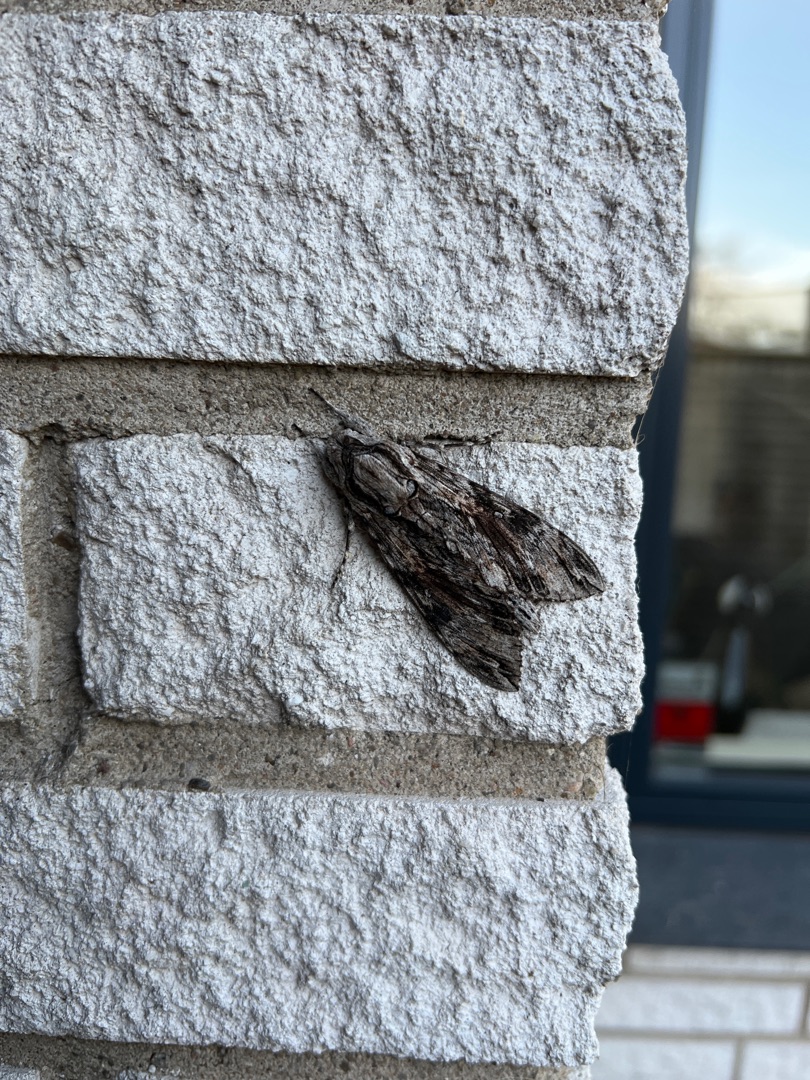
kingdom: Animalia
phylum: Arthropoda
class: Insecta
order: Lepidoptera
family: Sphingidae
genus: Agrius
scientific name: Agrius convolvuli
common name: Snerlesværmer
